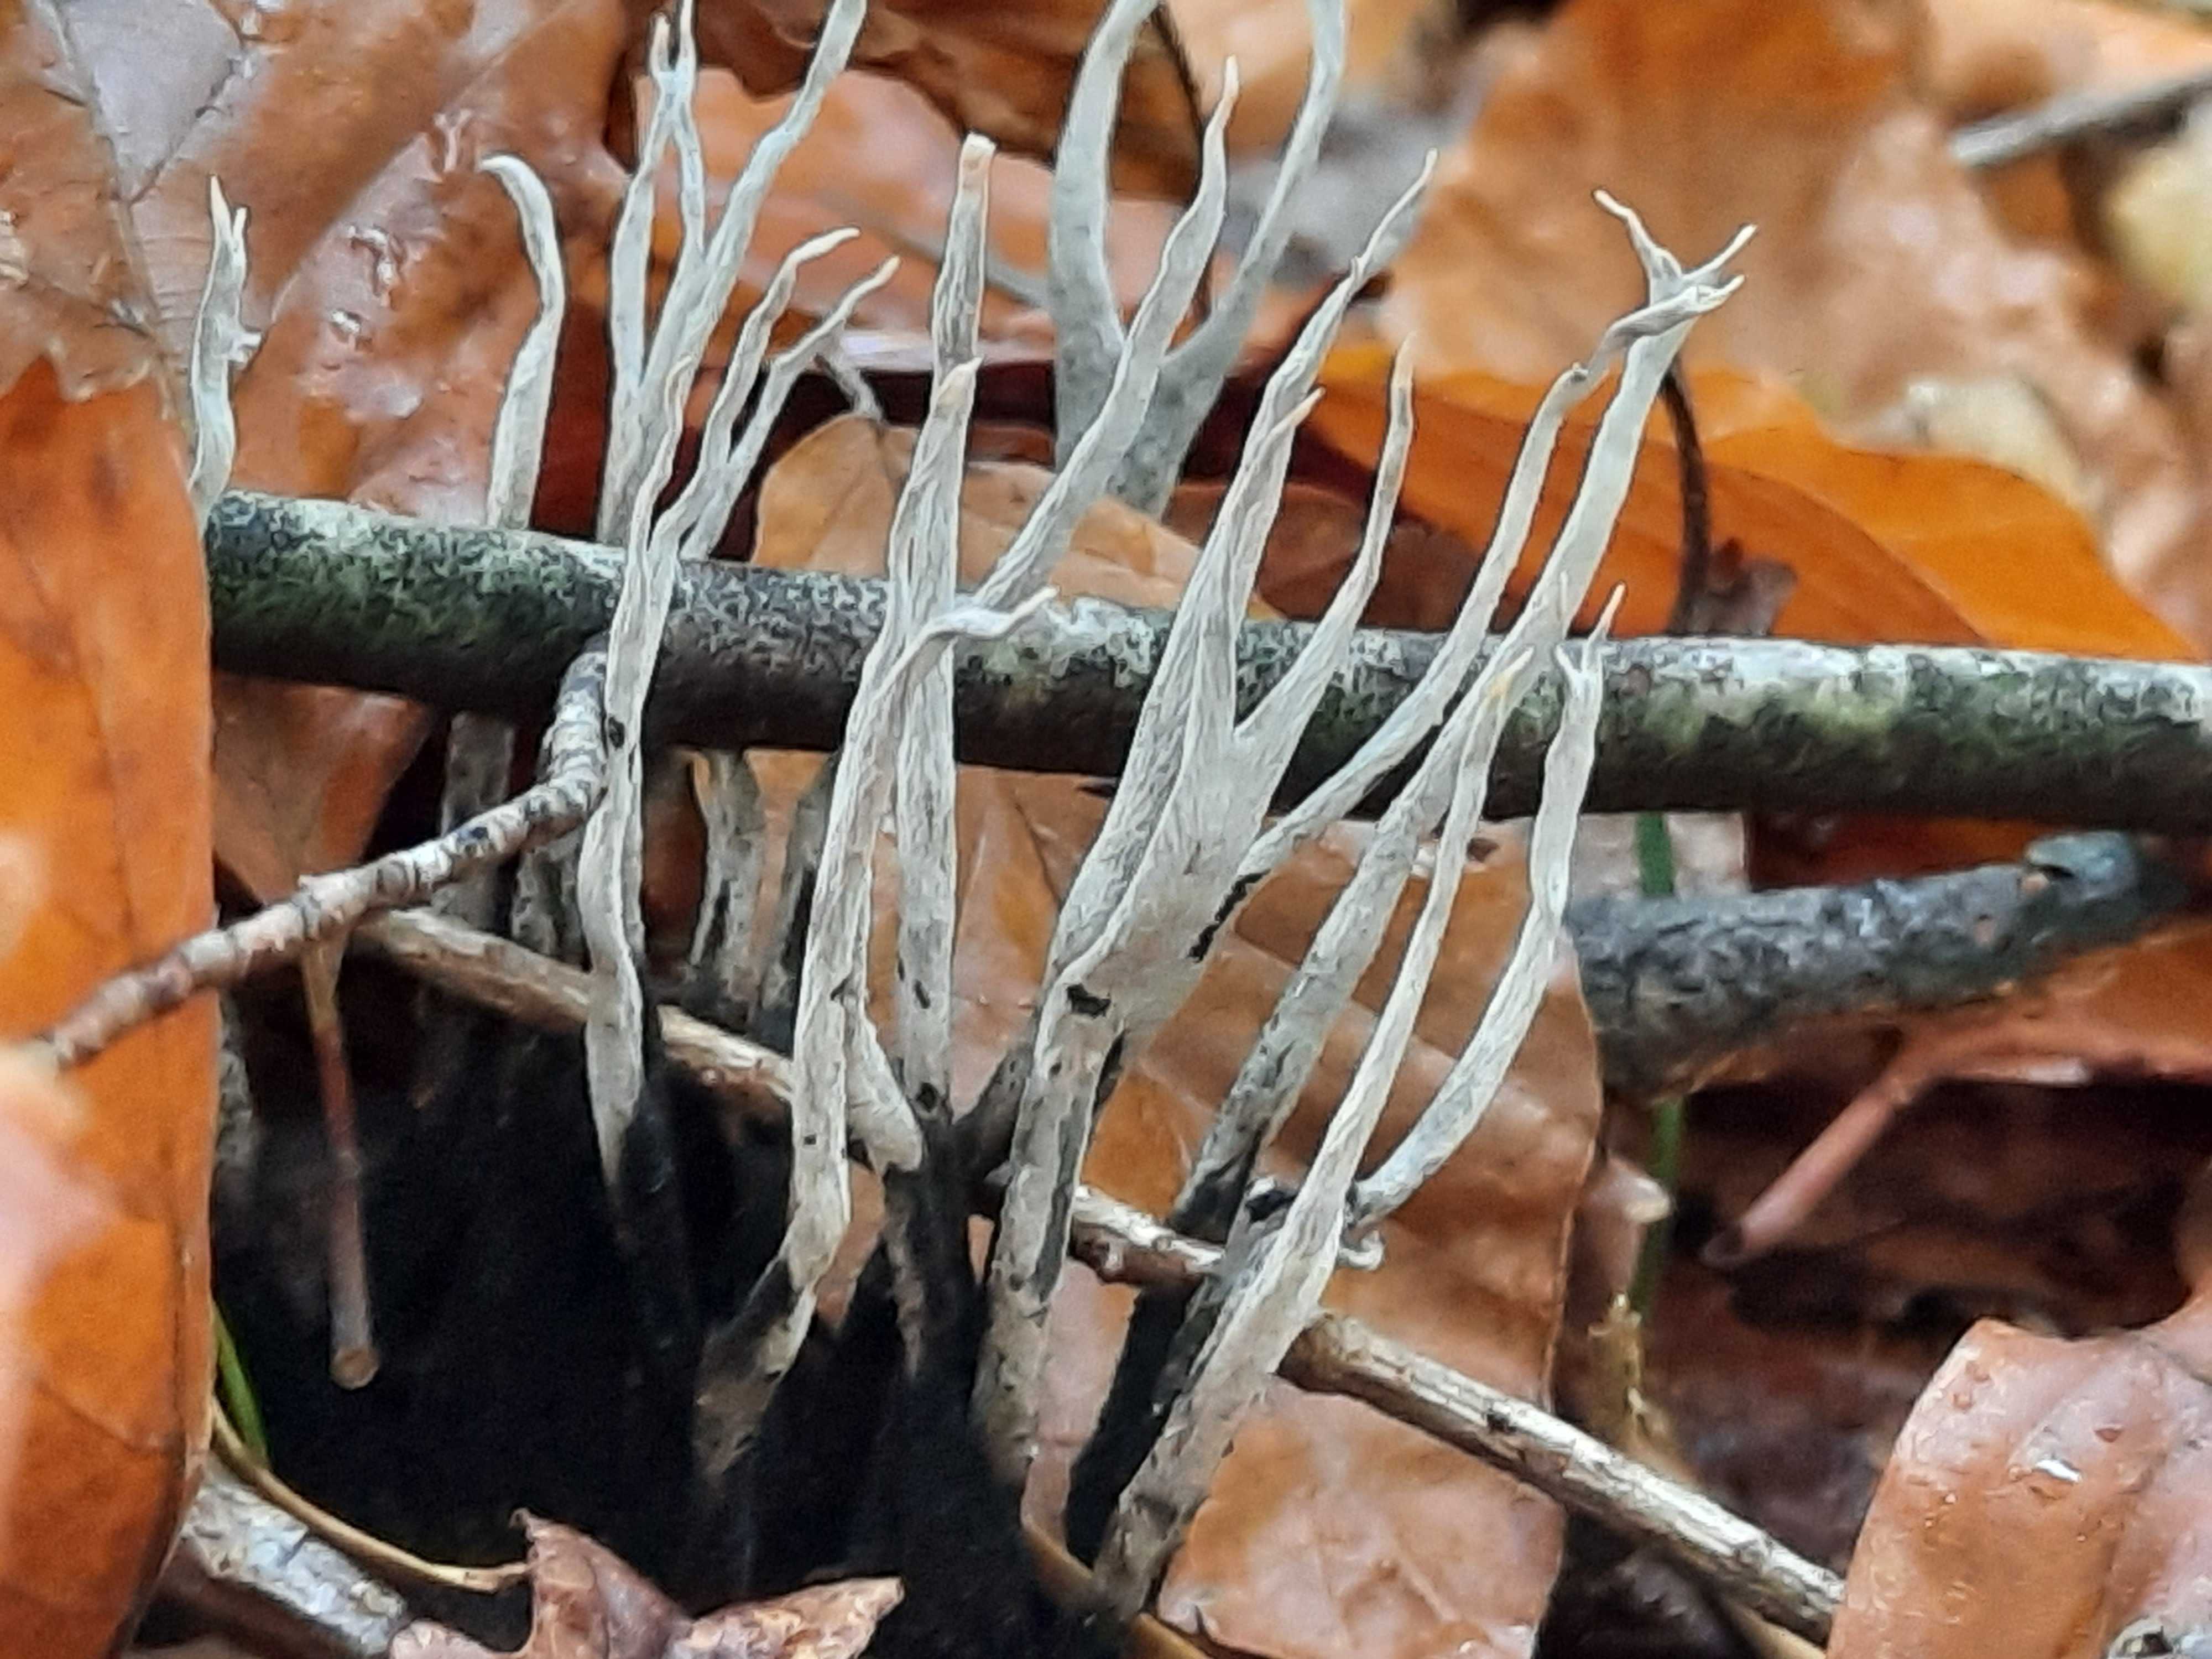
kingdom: Fungi
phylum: Ascomycota
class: Sordariomycetes
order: Xylariales
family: Xylariaceae
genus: Xylaria
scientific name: Xylaria hypoxylon
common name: grenet stødsvamp
